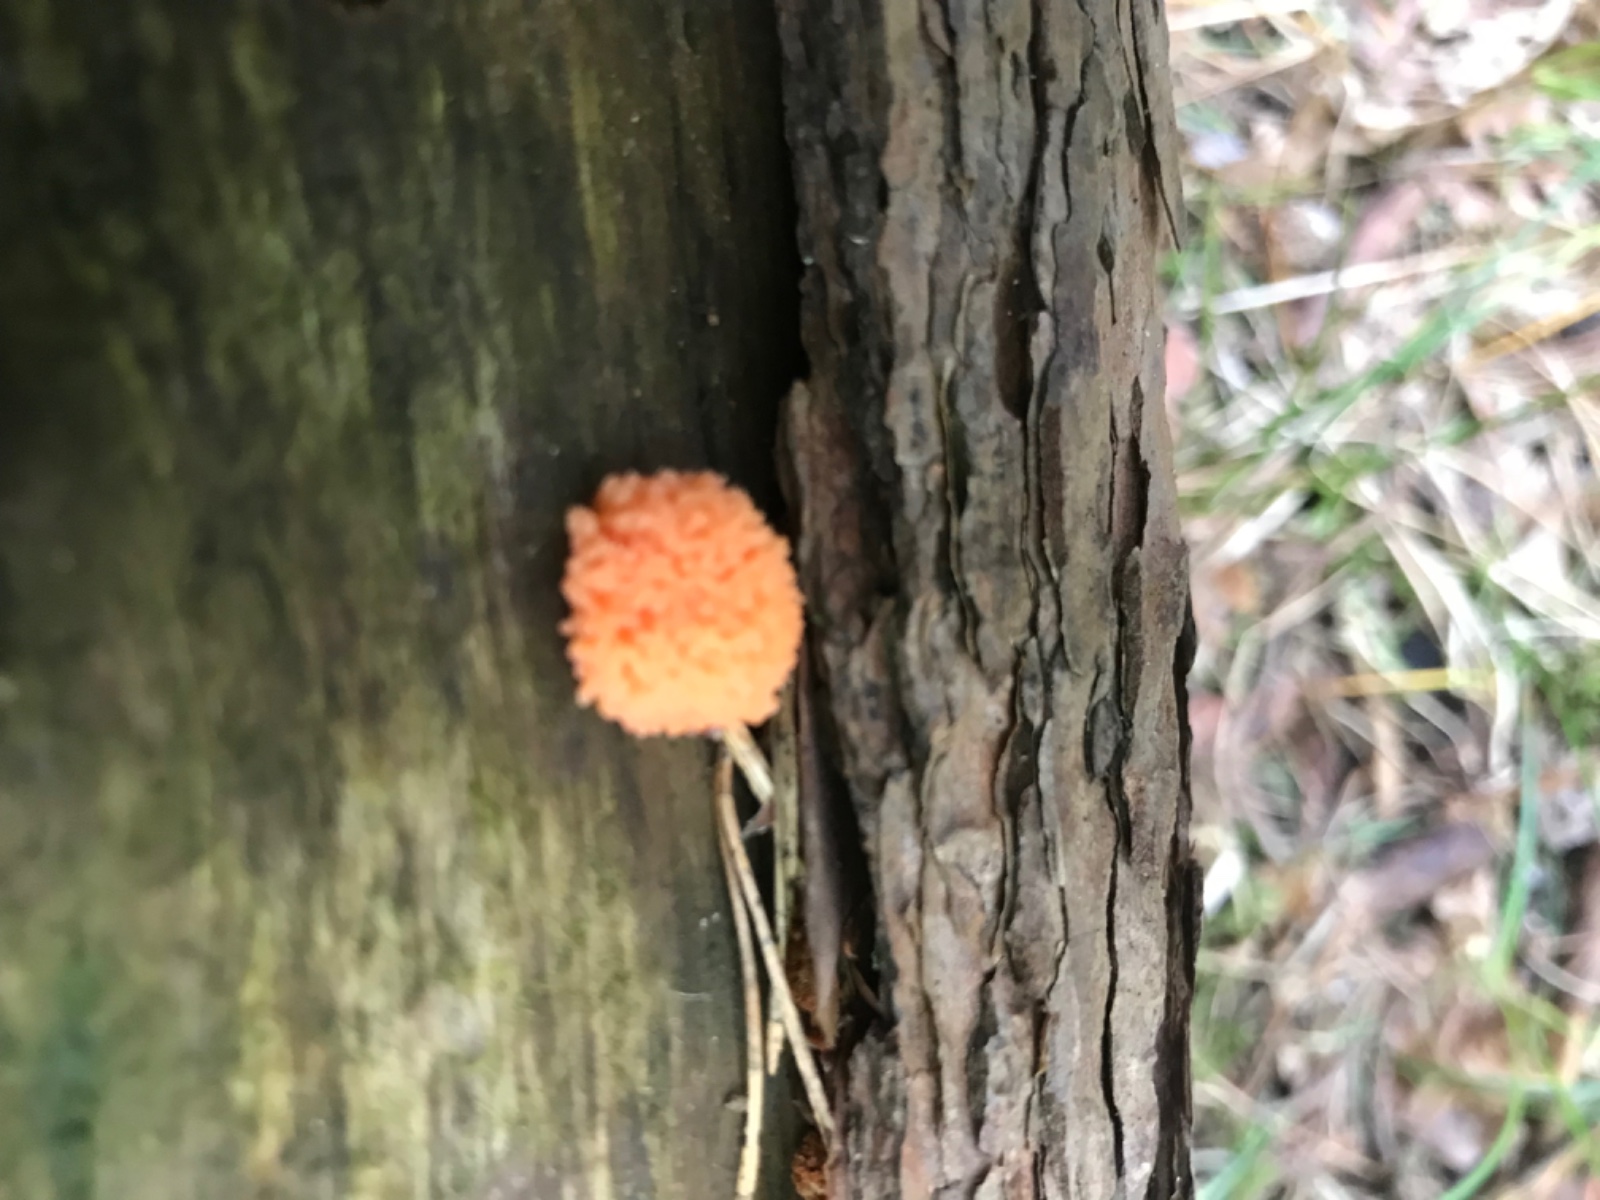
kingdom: Protozoa
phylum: Mycetozoa
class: Myxomycetes
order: Cribrariales
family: Tubiferaceae
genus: Tubifera
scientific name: Tubifera
